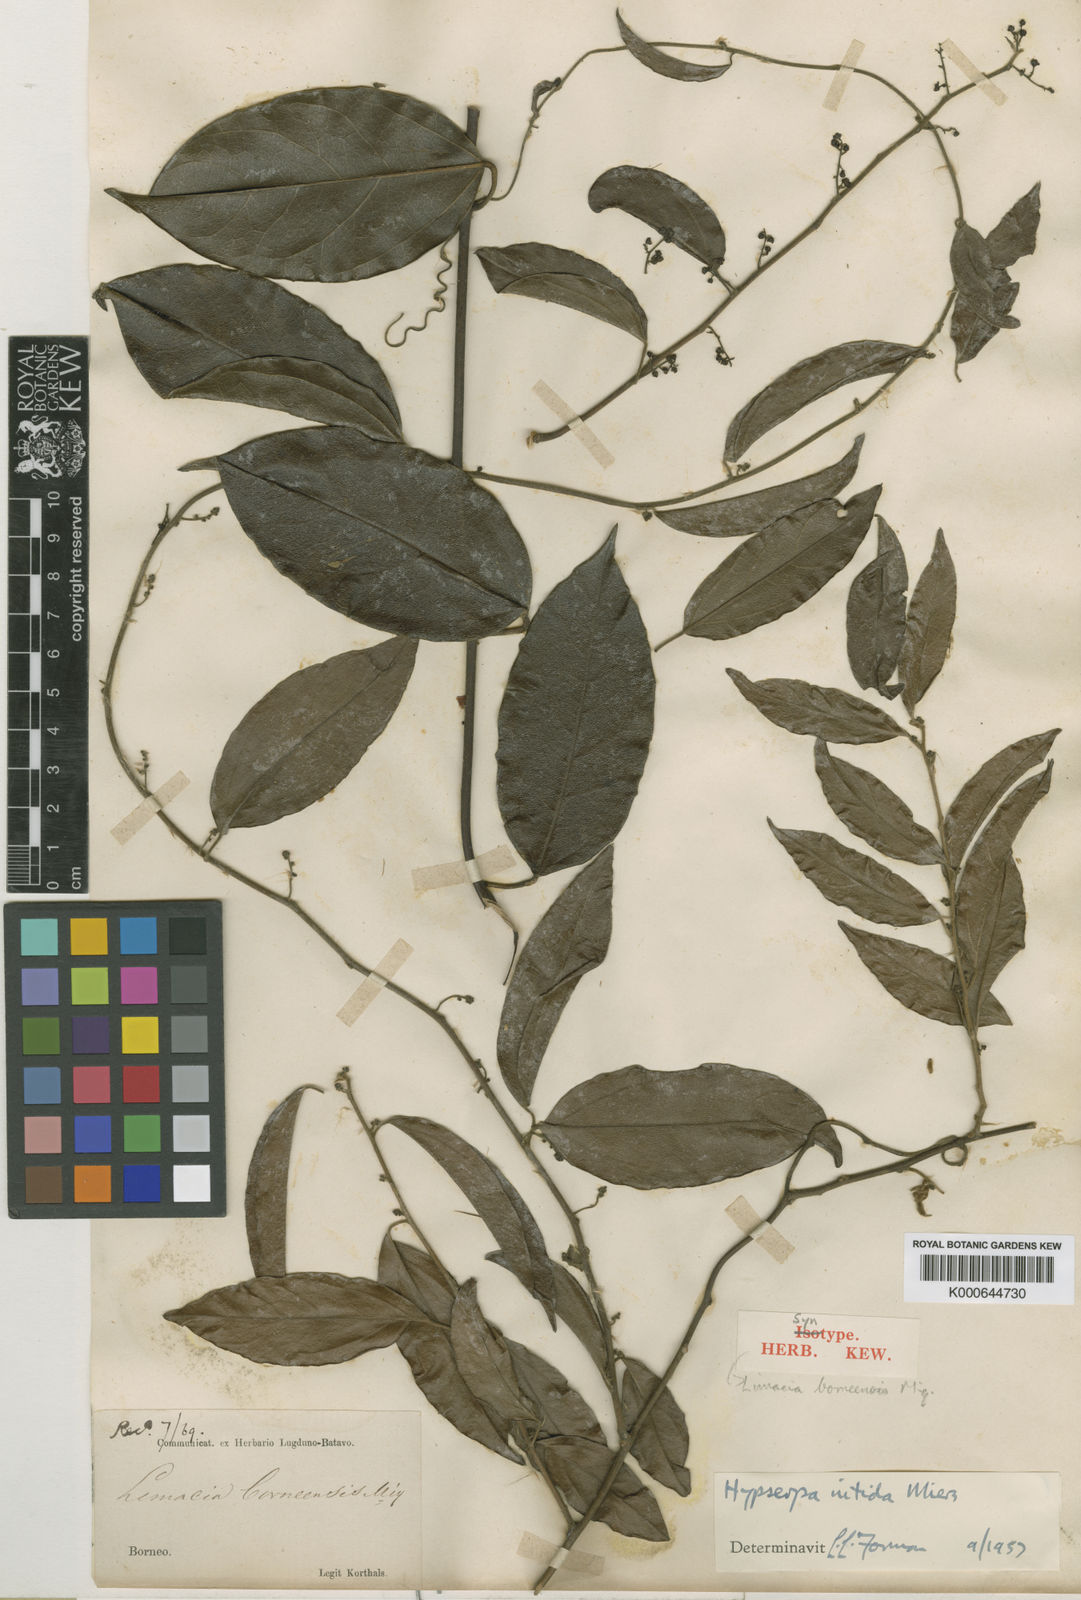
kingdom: Plantae
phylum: Tracheophyta
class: Magnoliopsida
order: Ranunculales
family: Menispermaceae
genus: Hypserpa
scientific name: Hypserpa
